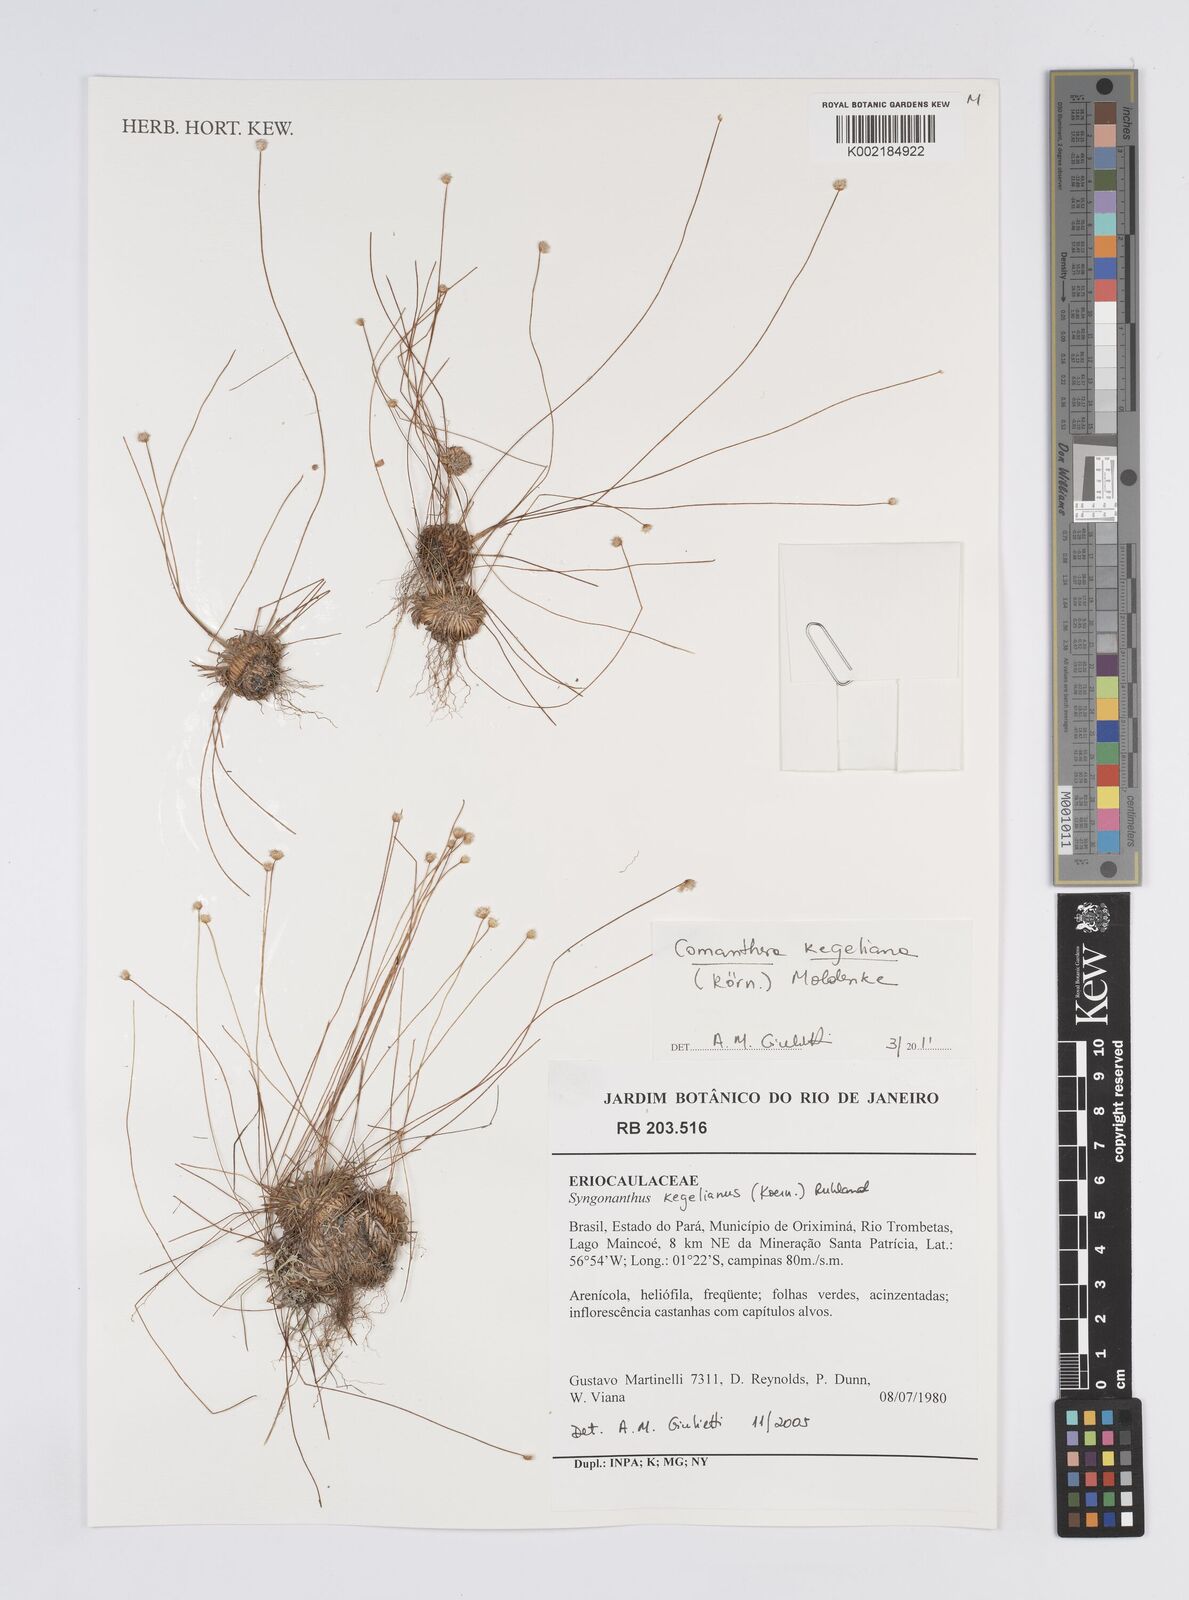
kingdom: Plantae
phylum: Tracheophyta
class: Liliopsida
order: Poales
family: Eriocaulaceae
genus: Comanthera
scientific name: Comanthera kegeliana
